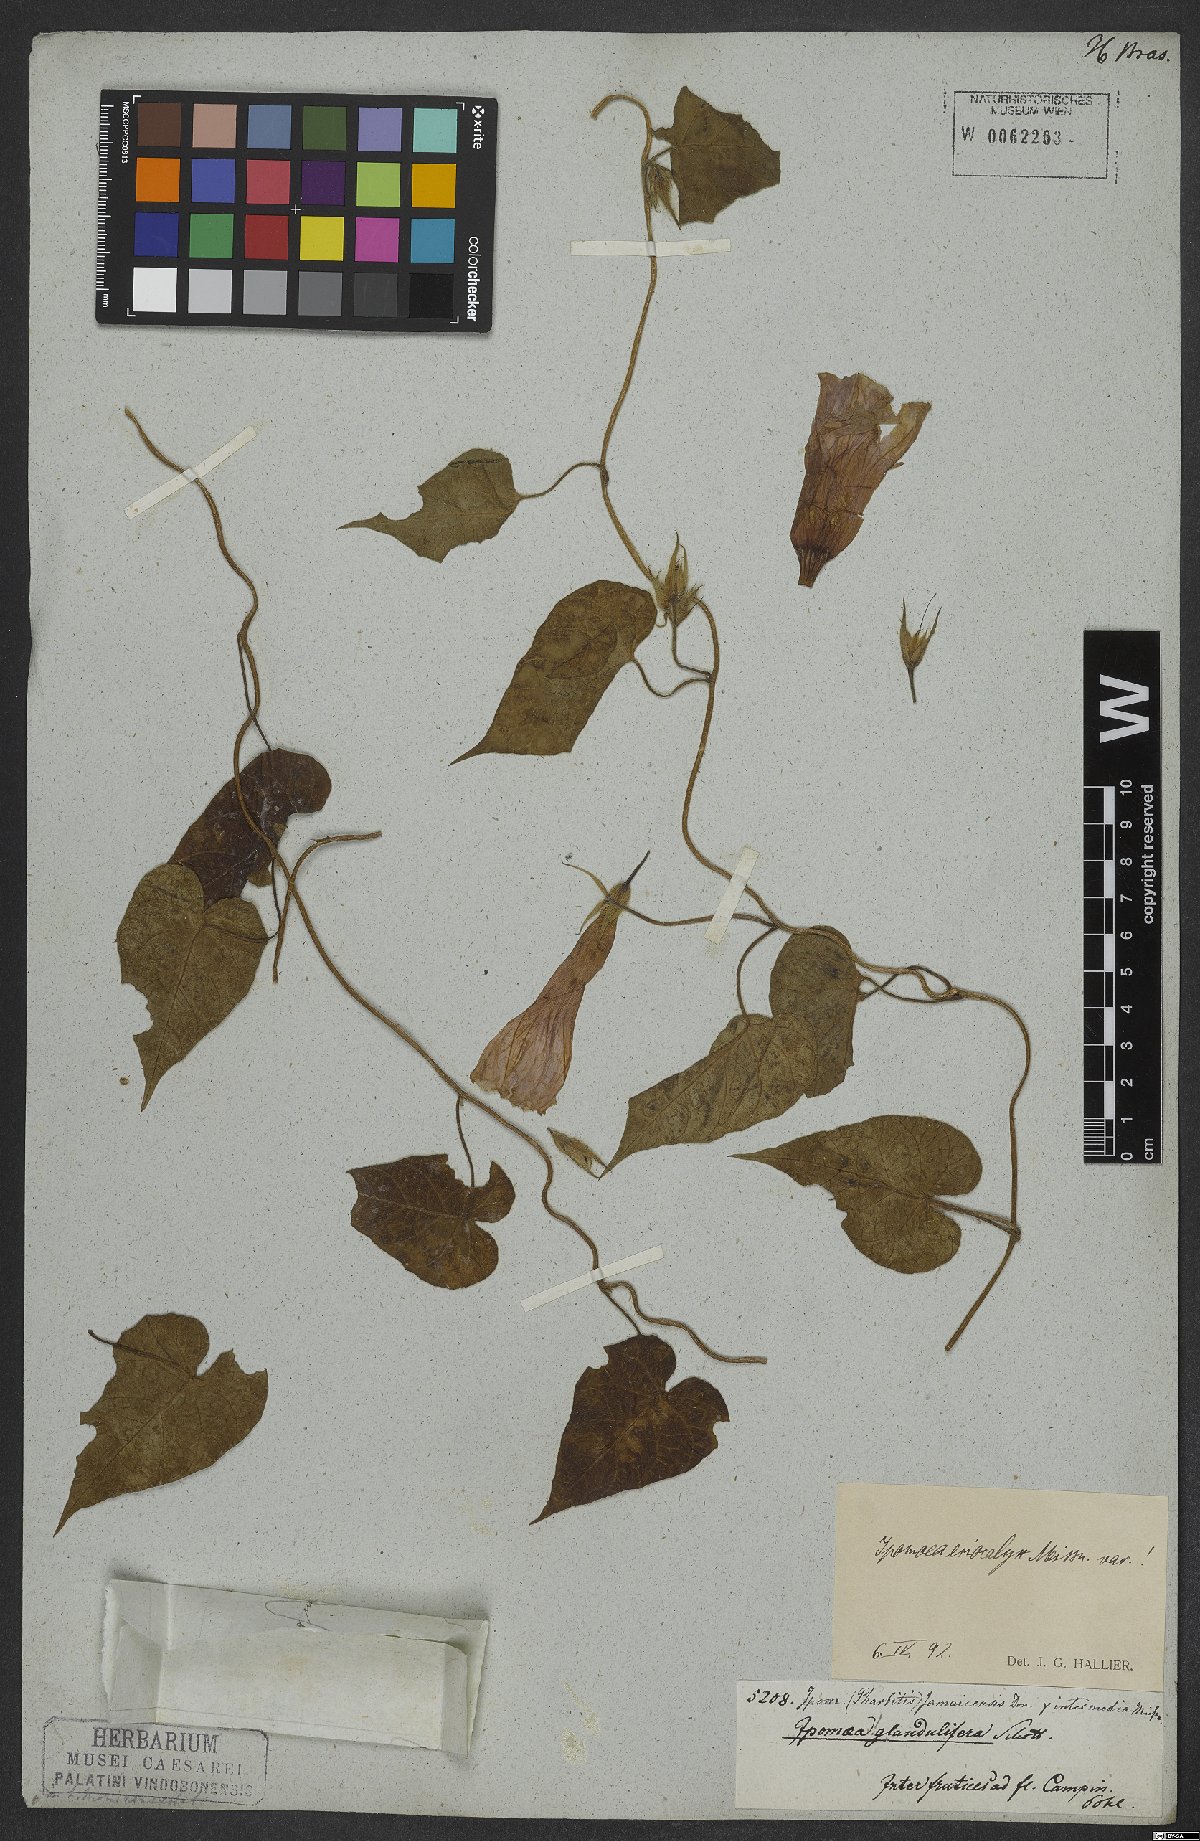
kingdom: Plantae
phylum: Tracheophyta
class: Magnoliopsida
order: Solanales
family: Convolvulaceae
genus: Ipomoea
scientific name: Ipomoea eriocalyx
